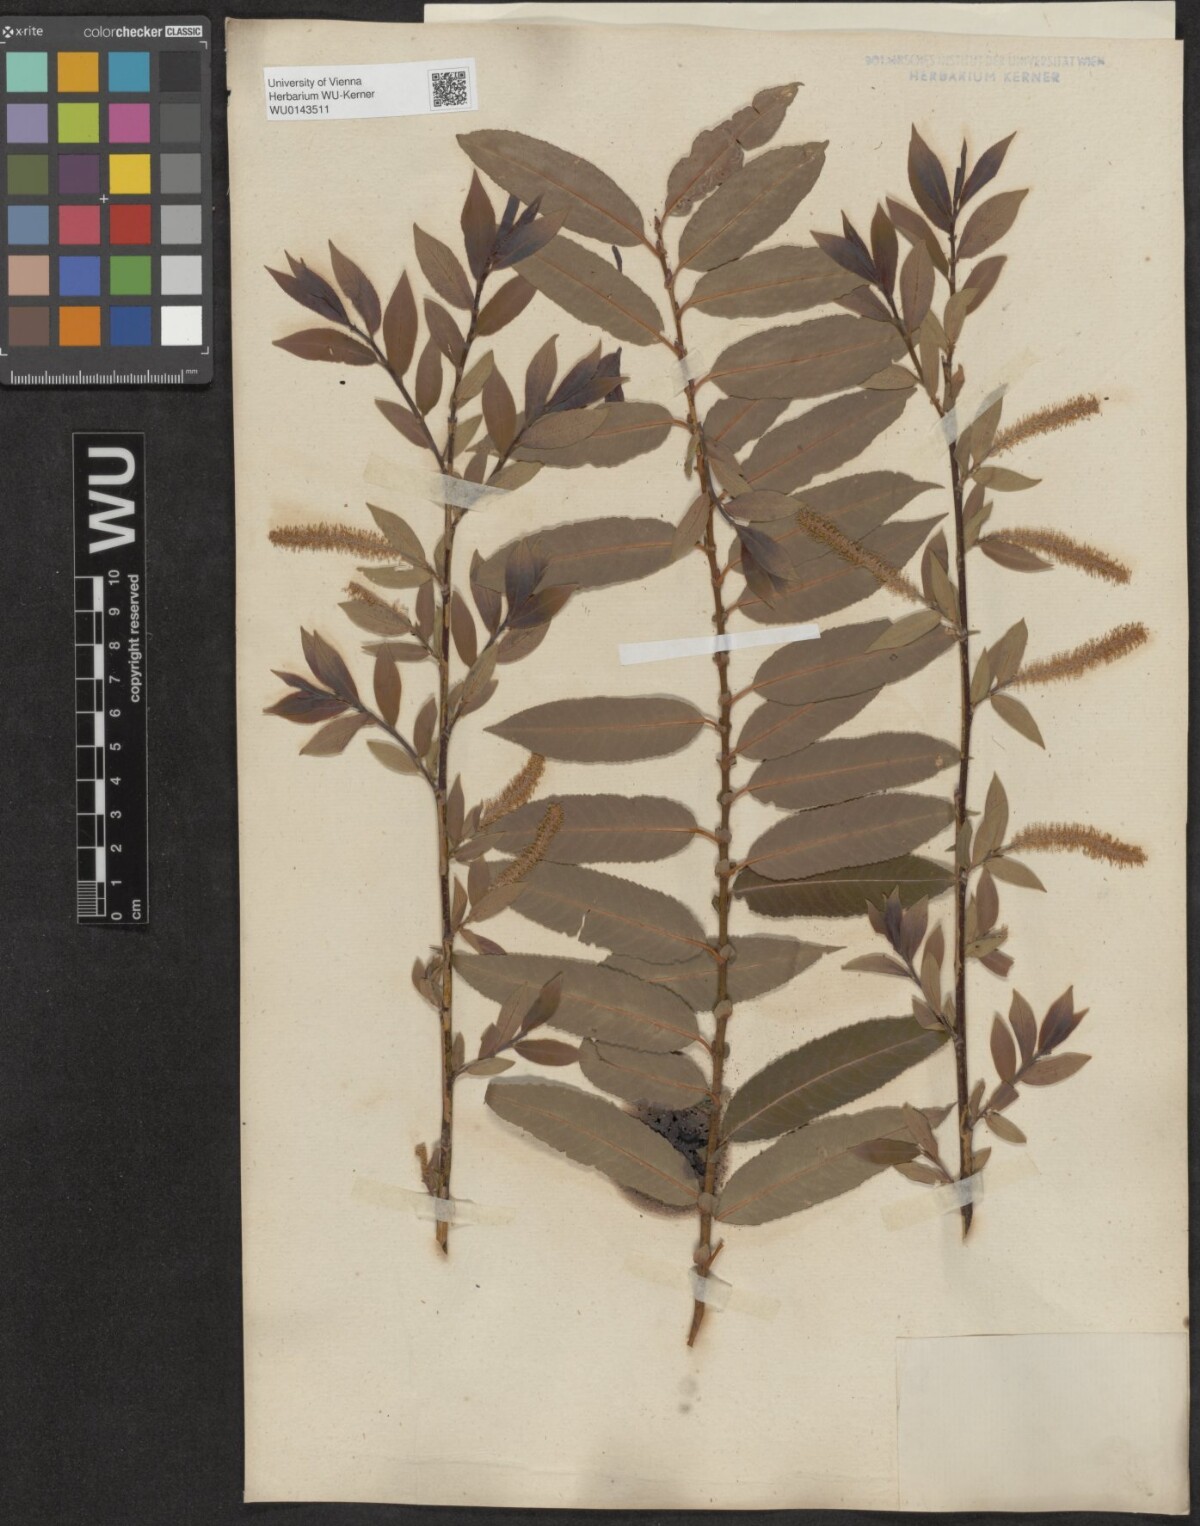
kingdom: Plantae
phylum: Tracheophyta
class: Magnoliopsida
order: Malpighiales
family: Salicaceae
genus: Salix
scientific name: Salix triandra
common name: Almond willow
